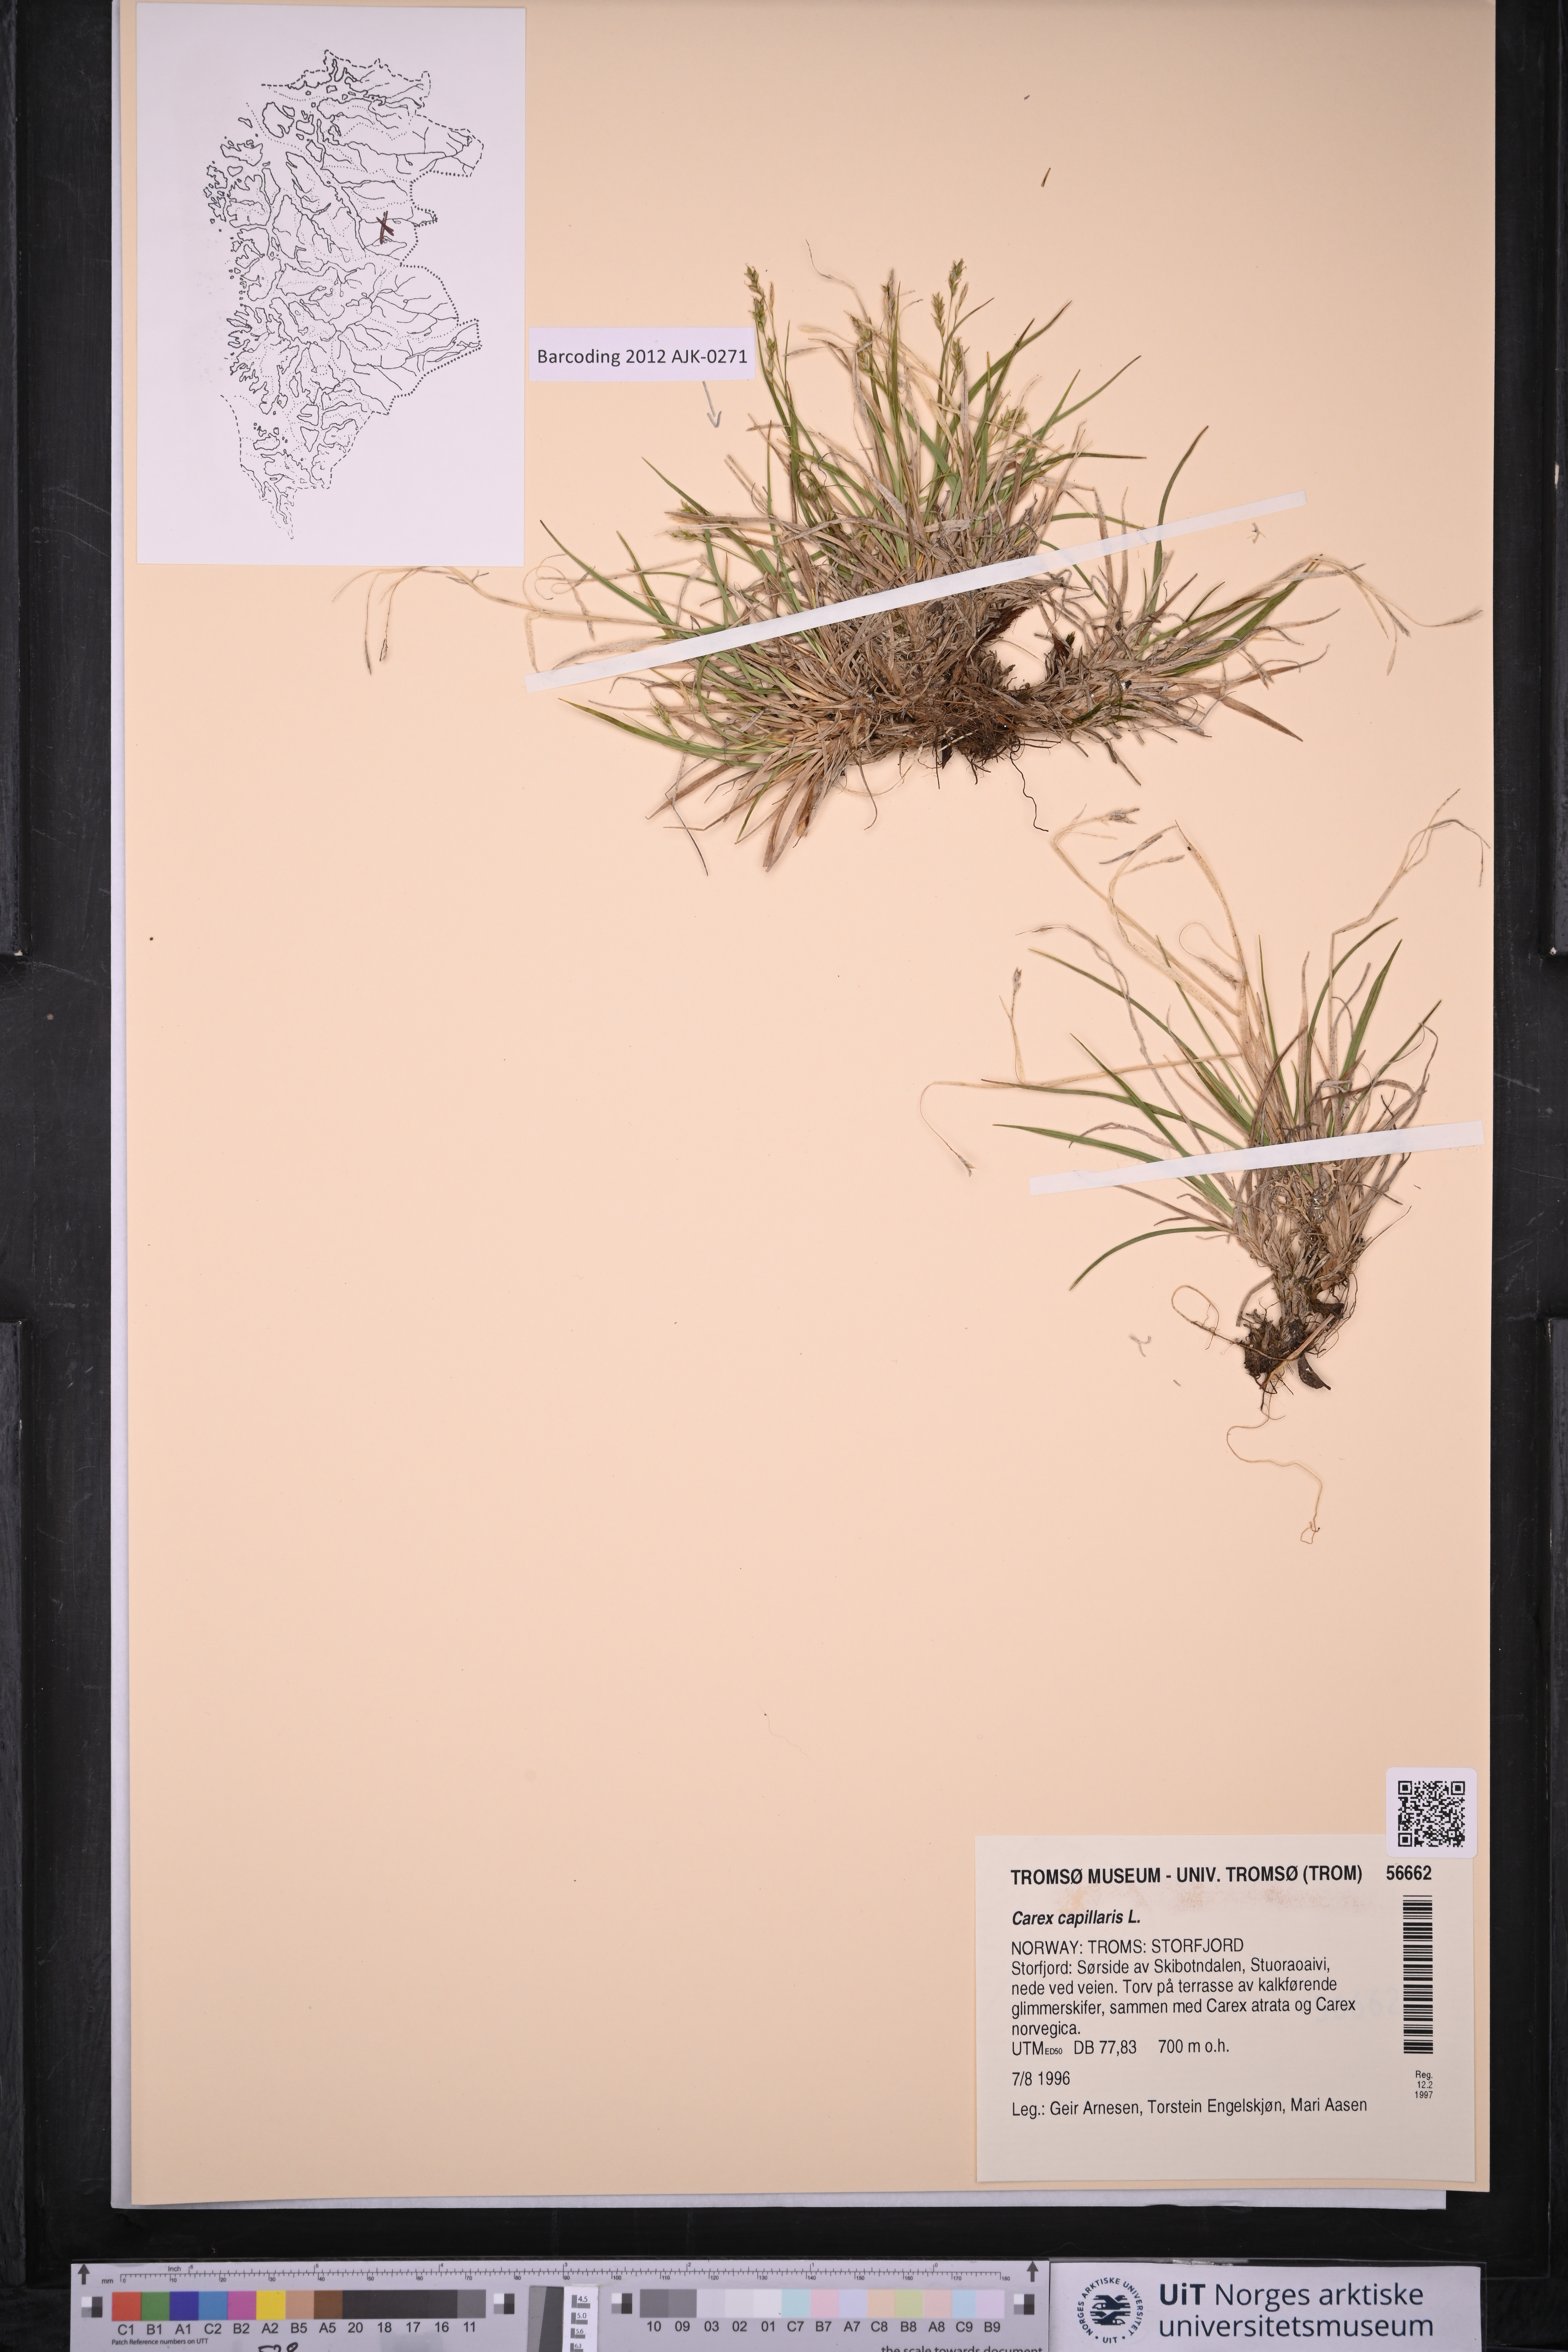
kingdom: Plantae
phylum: Tracheophyta
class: Liliopsida
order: Poales
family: Cyperaceae
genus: Carex
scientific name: Carex capillaris
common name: Hair sedge
